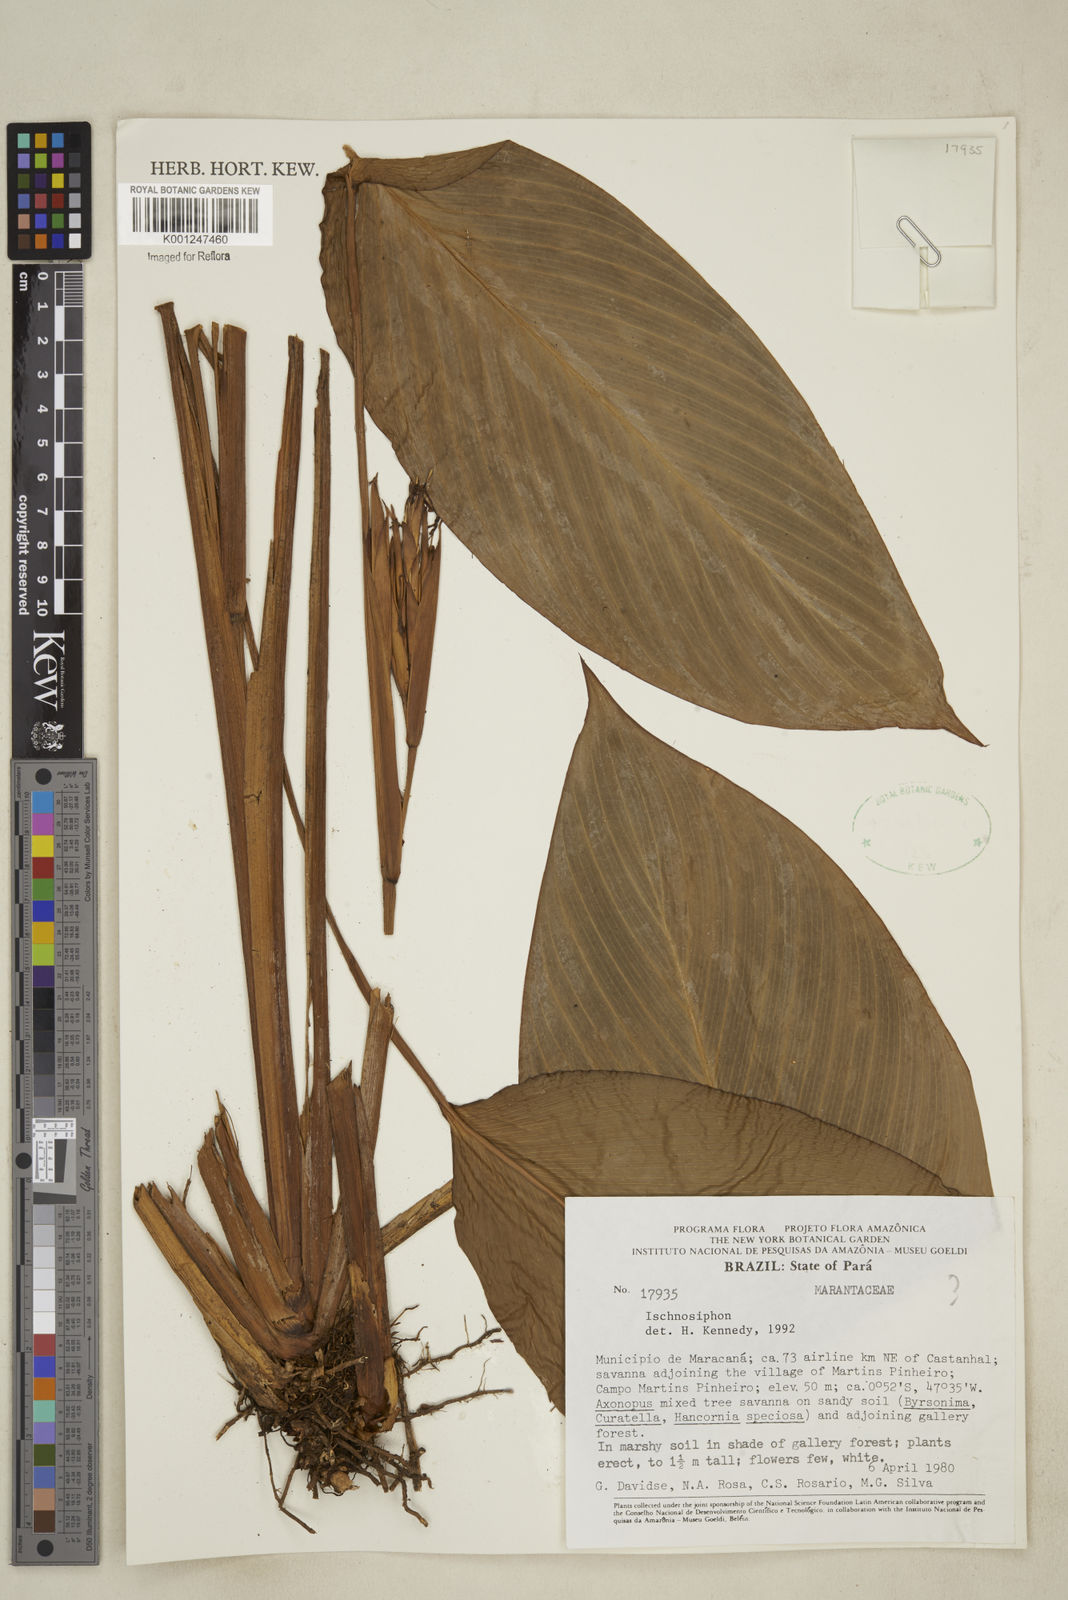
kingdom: Plantae
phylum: Tracheophyta
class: Liliopsida
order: Zingiberales
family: Marantaceae
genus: Ischnosiphon
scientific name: Ischnosiphon
